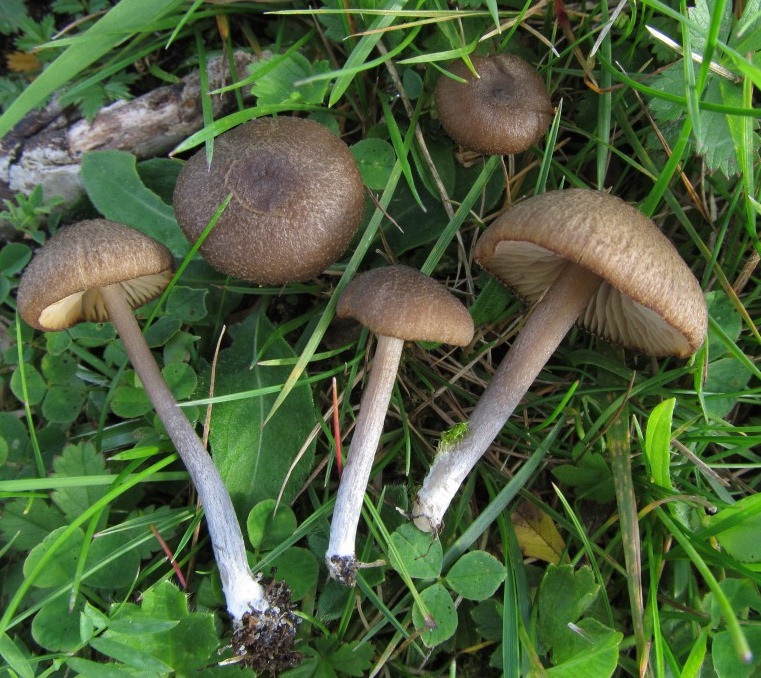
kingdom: Fungi
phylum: Basidiomycota
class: Agaricomycetes
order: Agaricales
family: Entolomataceae
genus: Entoloma
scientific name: Entoloma glaucobasis
